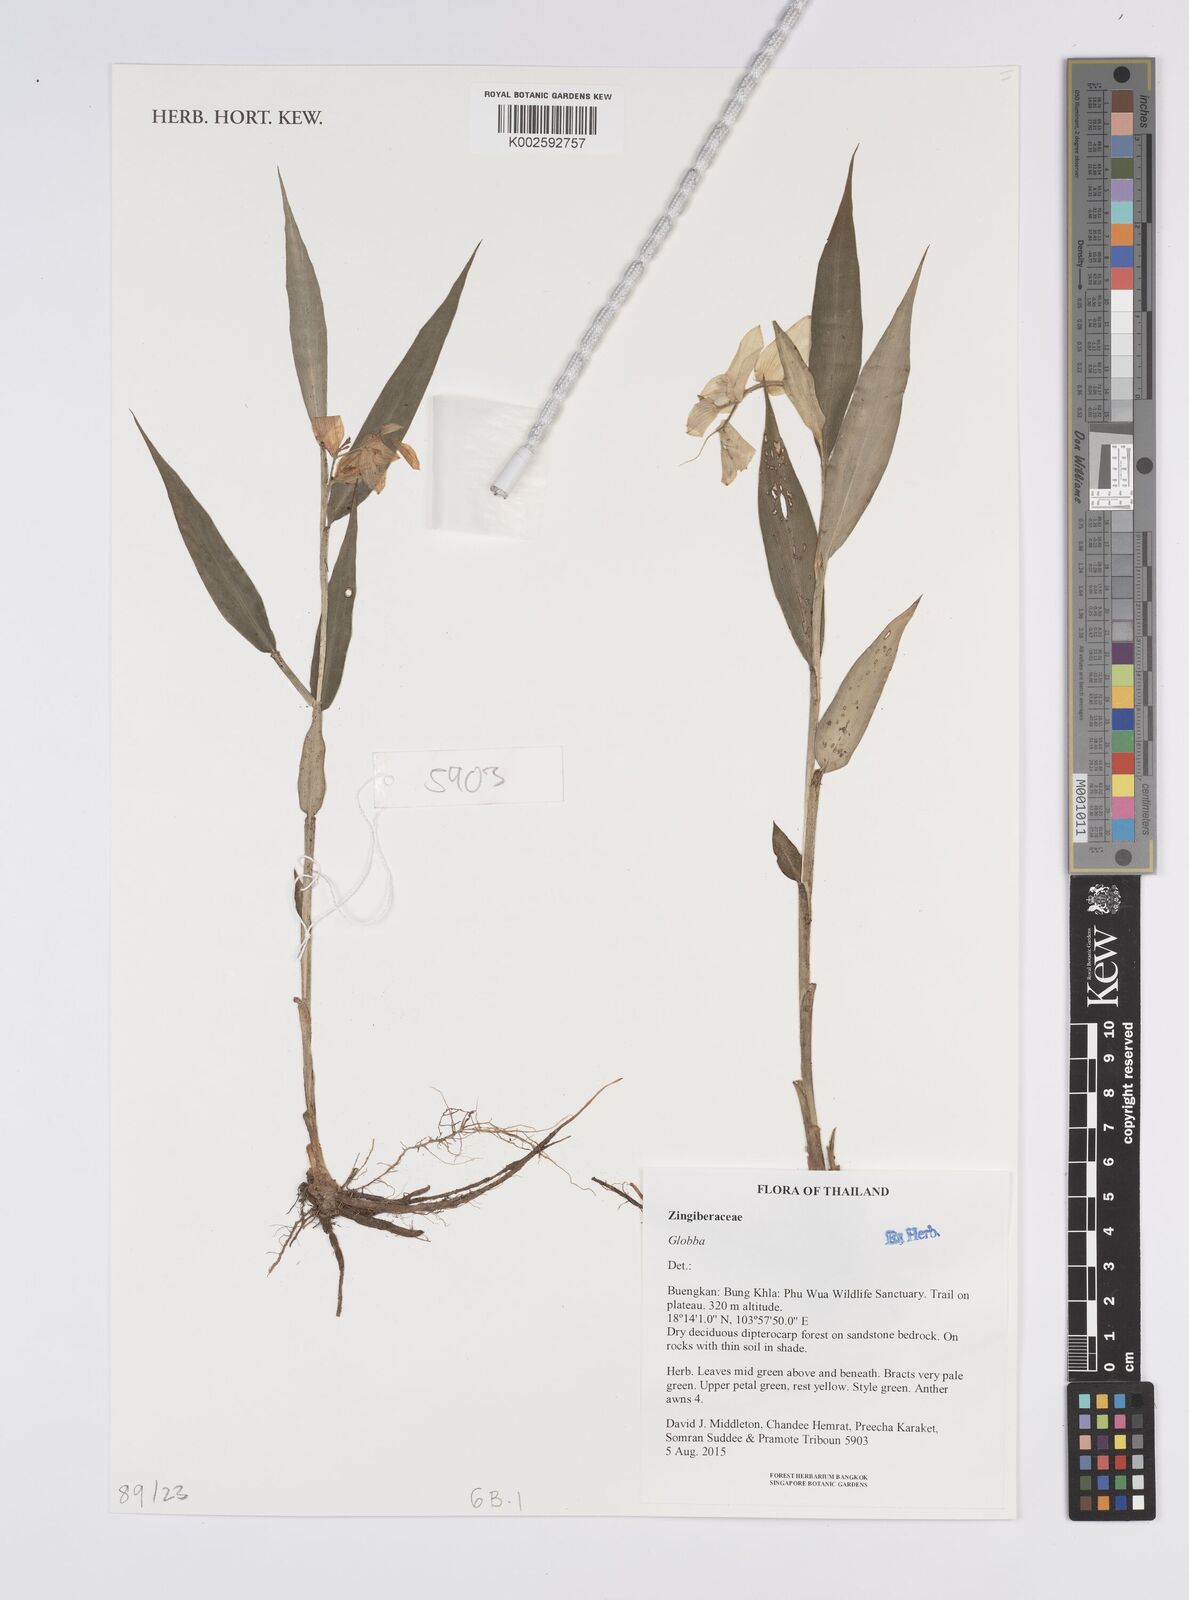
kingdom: Plantae
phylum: Tracheophyta
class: Liliopsida
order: Zingiberales
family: Zingiberaceae
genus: Globba
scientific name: Globba
